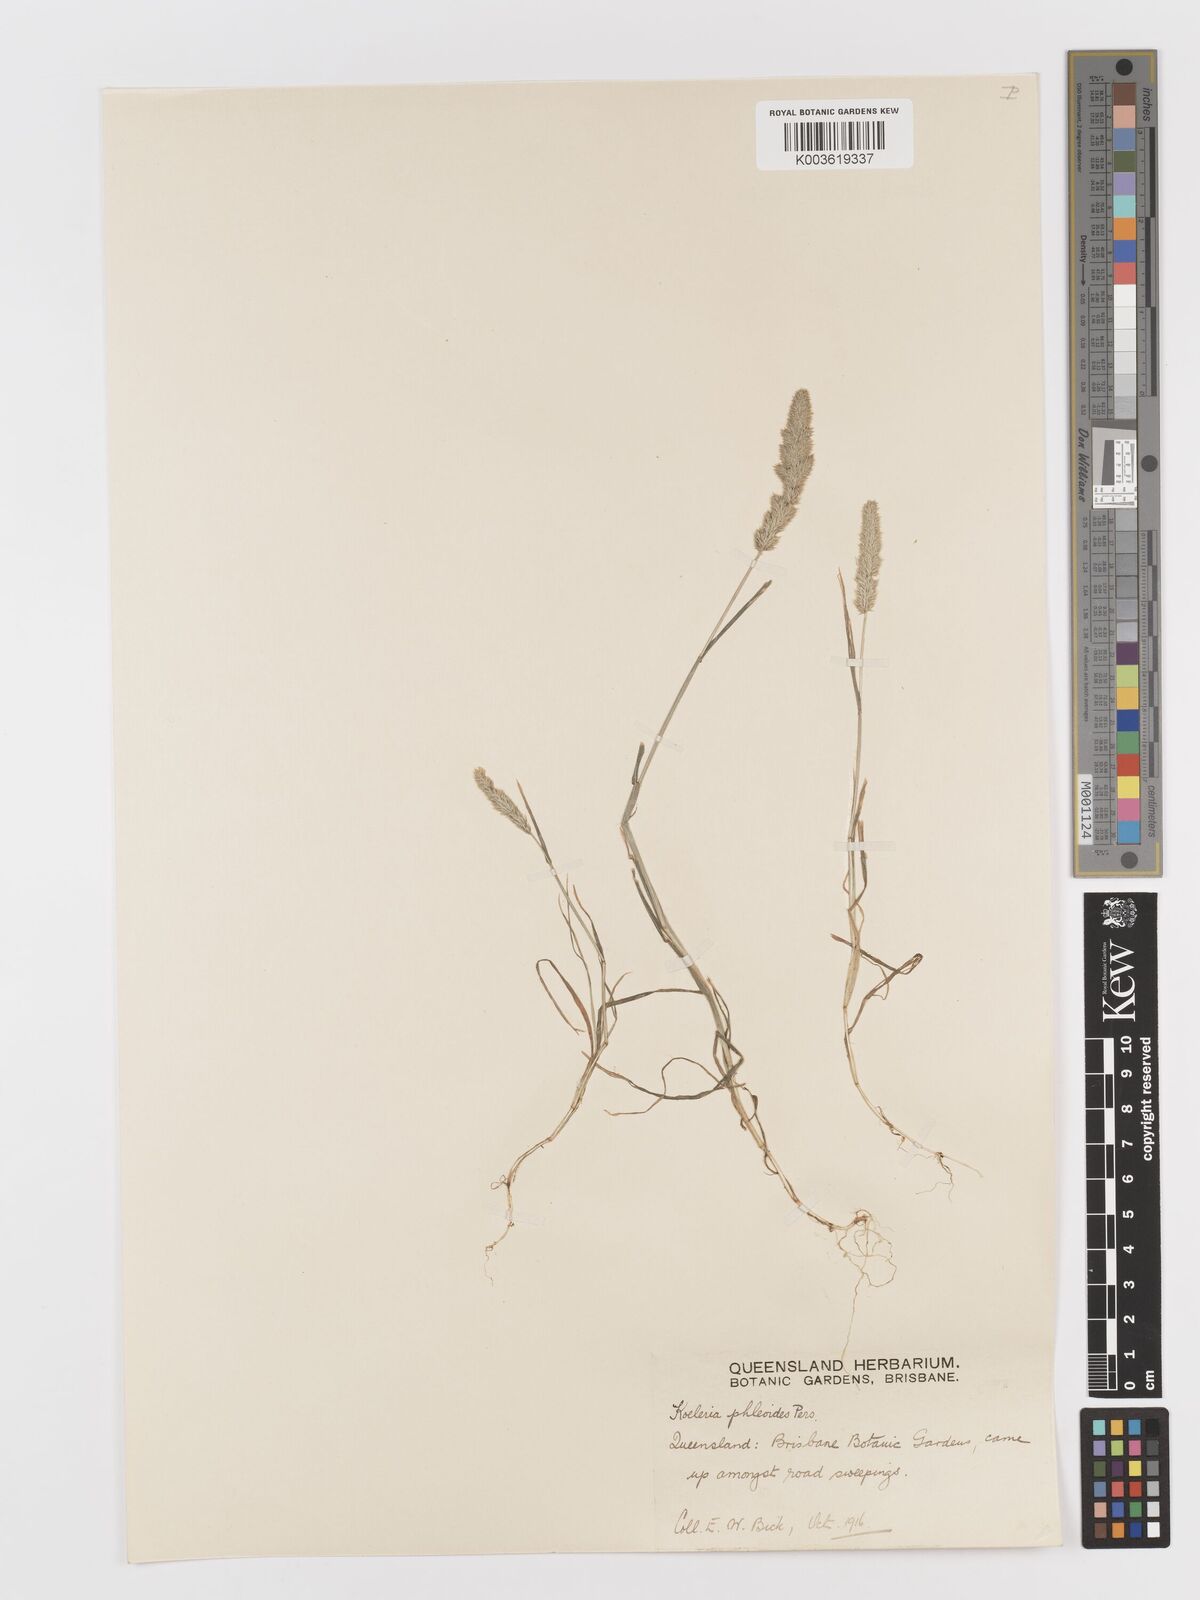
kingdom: Plantae
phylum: Tracheophyta
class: Liliopsida
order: Poales
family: Poaceae
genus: Rostraria
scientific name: Rostraria cristata
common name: Mediterranean hair-grass
